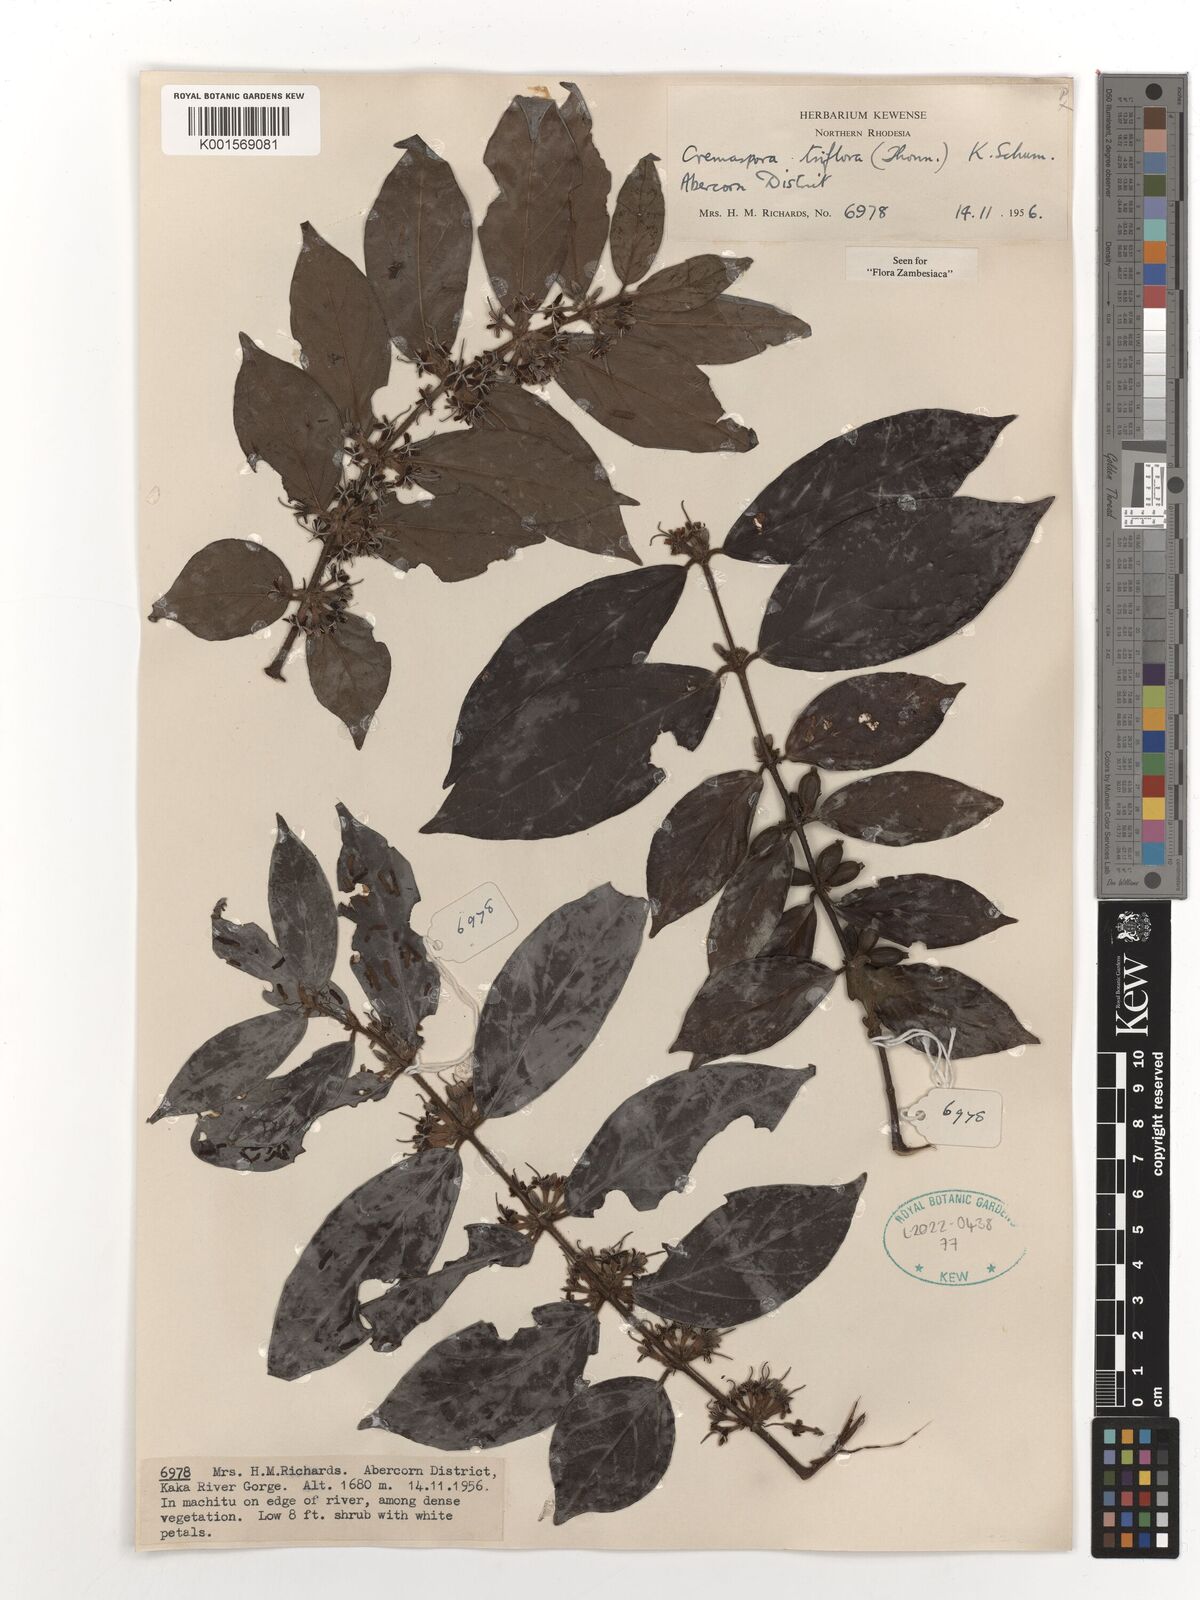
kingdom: Plantae
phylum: Tracheophyta
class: Magnoliopsida
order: Gentianales
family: Rubiaceae
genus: Cremaspora
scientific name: Cremaspora triflora
